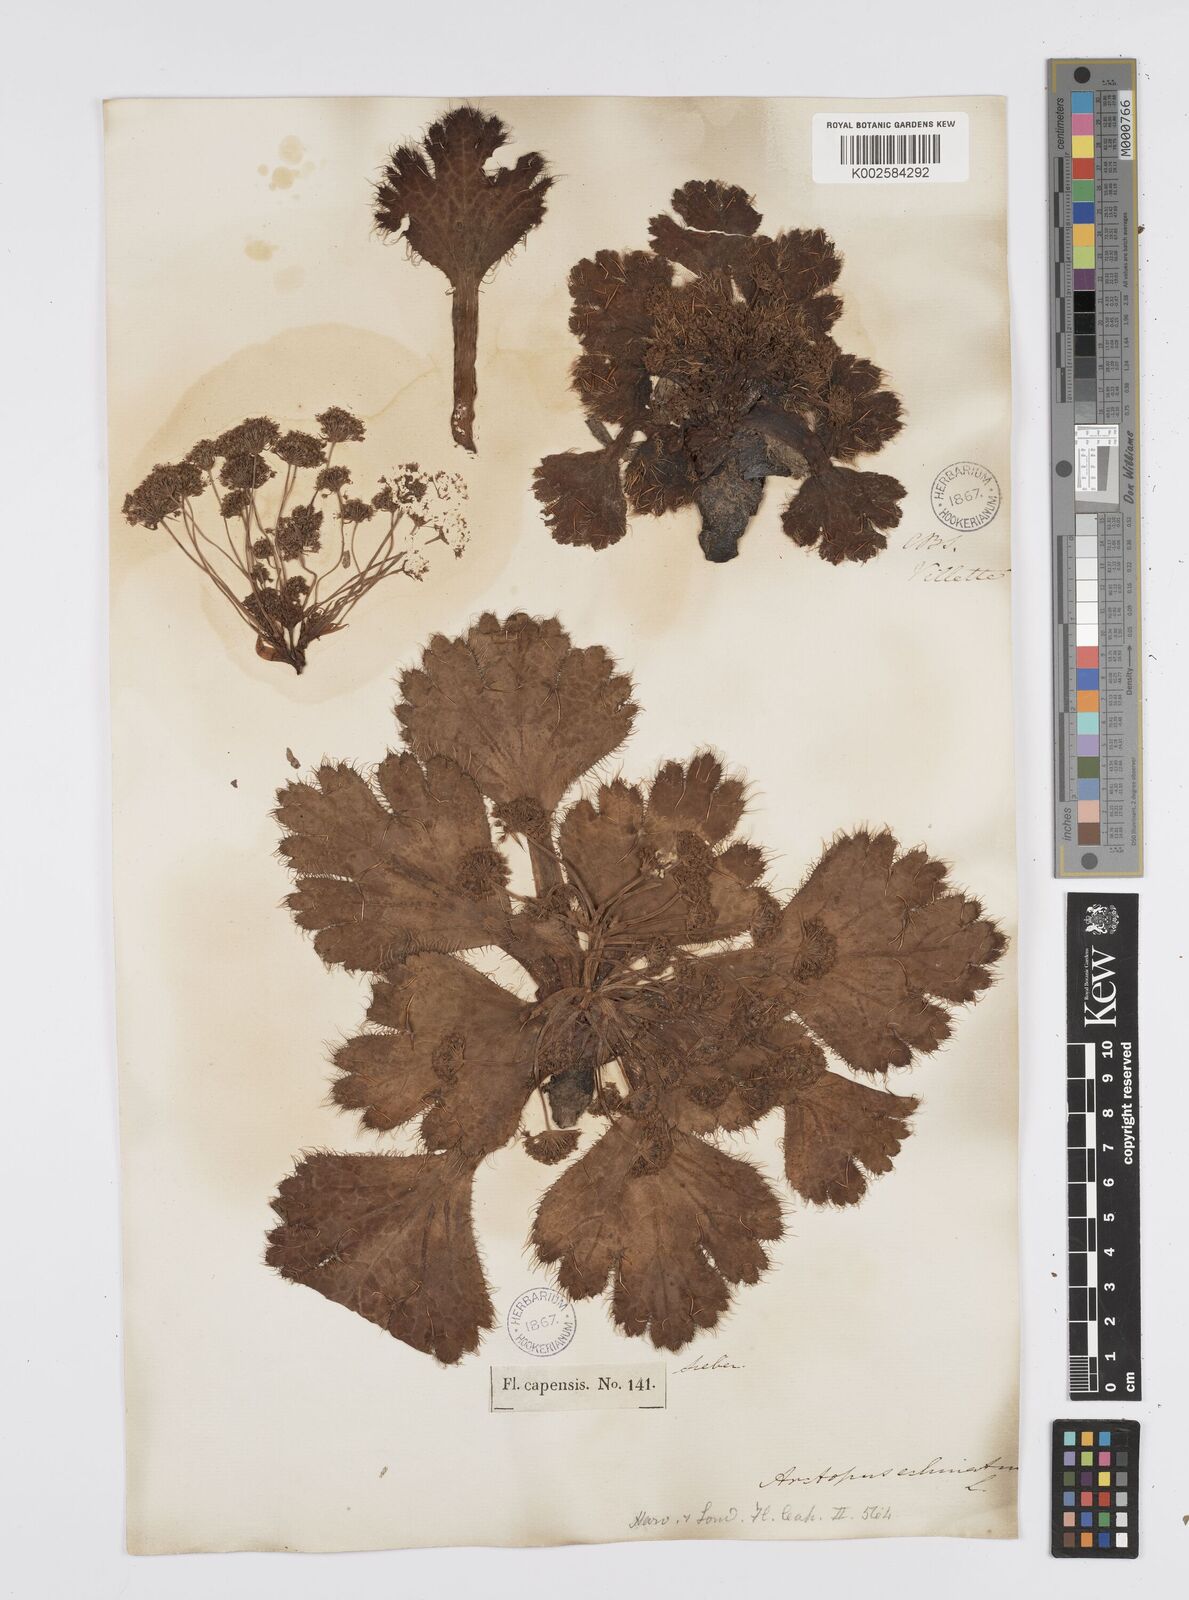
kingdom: Plantae
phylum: Tracheophyta
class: Magnoliopsida
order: Apiales
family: Apiaceae
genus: Arctopus
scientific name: Arctopus echinatus
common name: Platdoring
